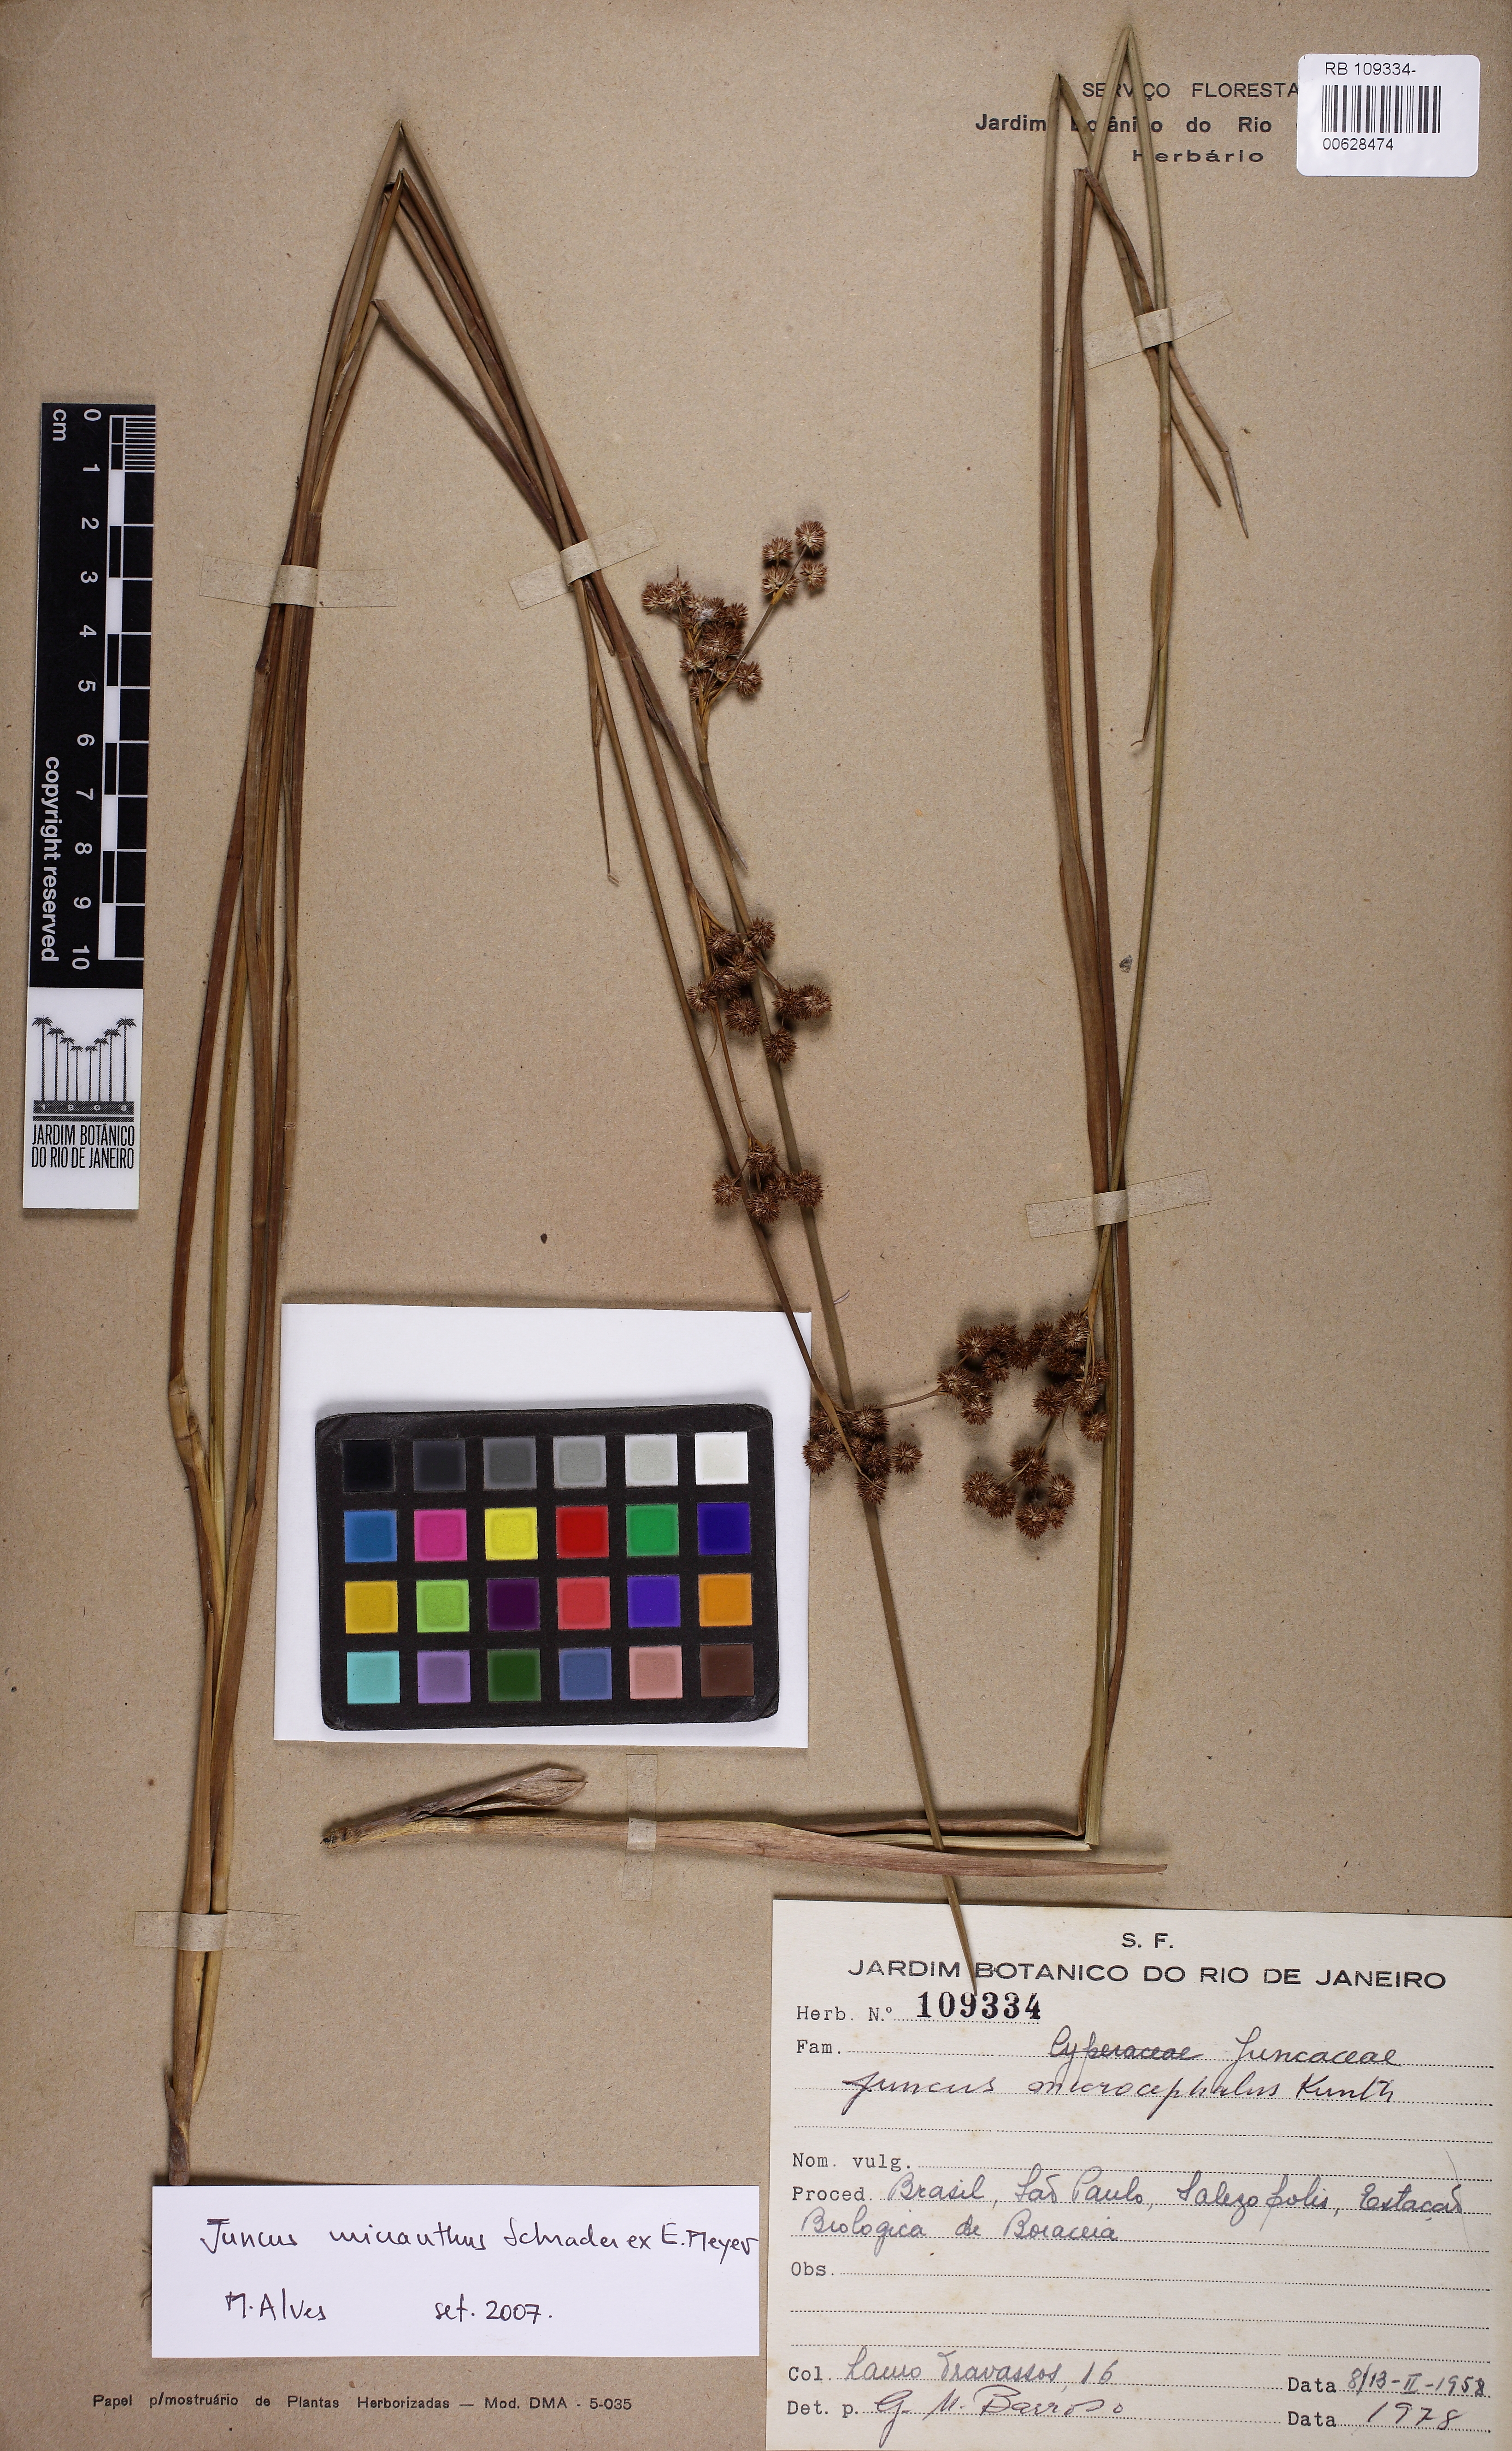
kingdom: Plantae
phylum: Tracheophyta
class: Liliopsida
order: Poales
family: Juncaceae
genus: Juncus
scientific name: Juncus micranthus
